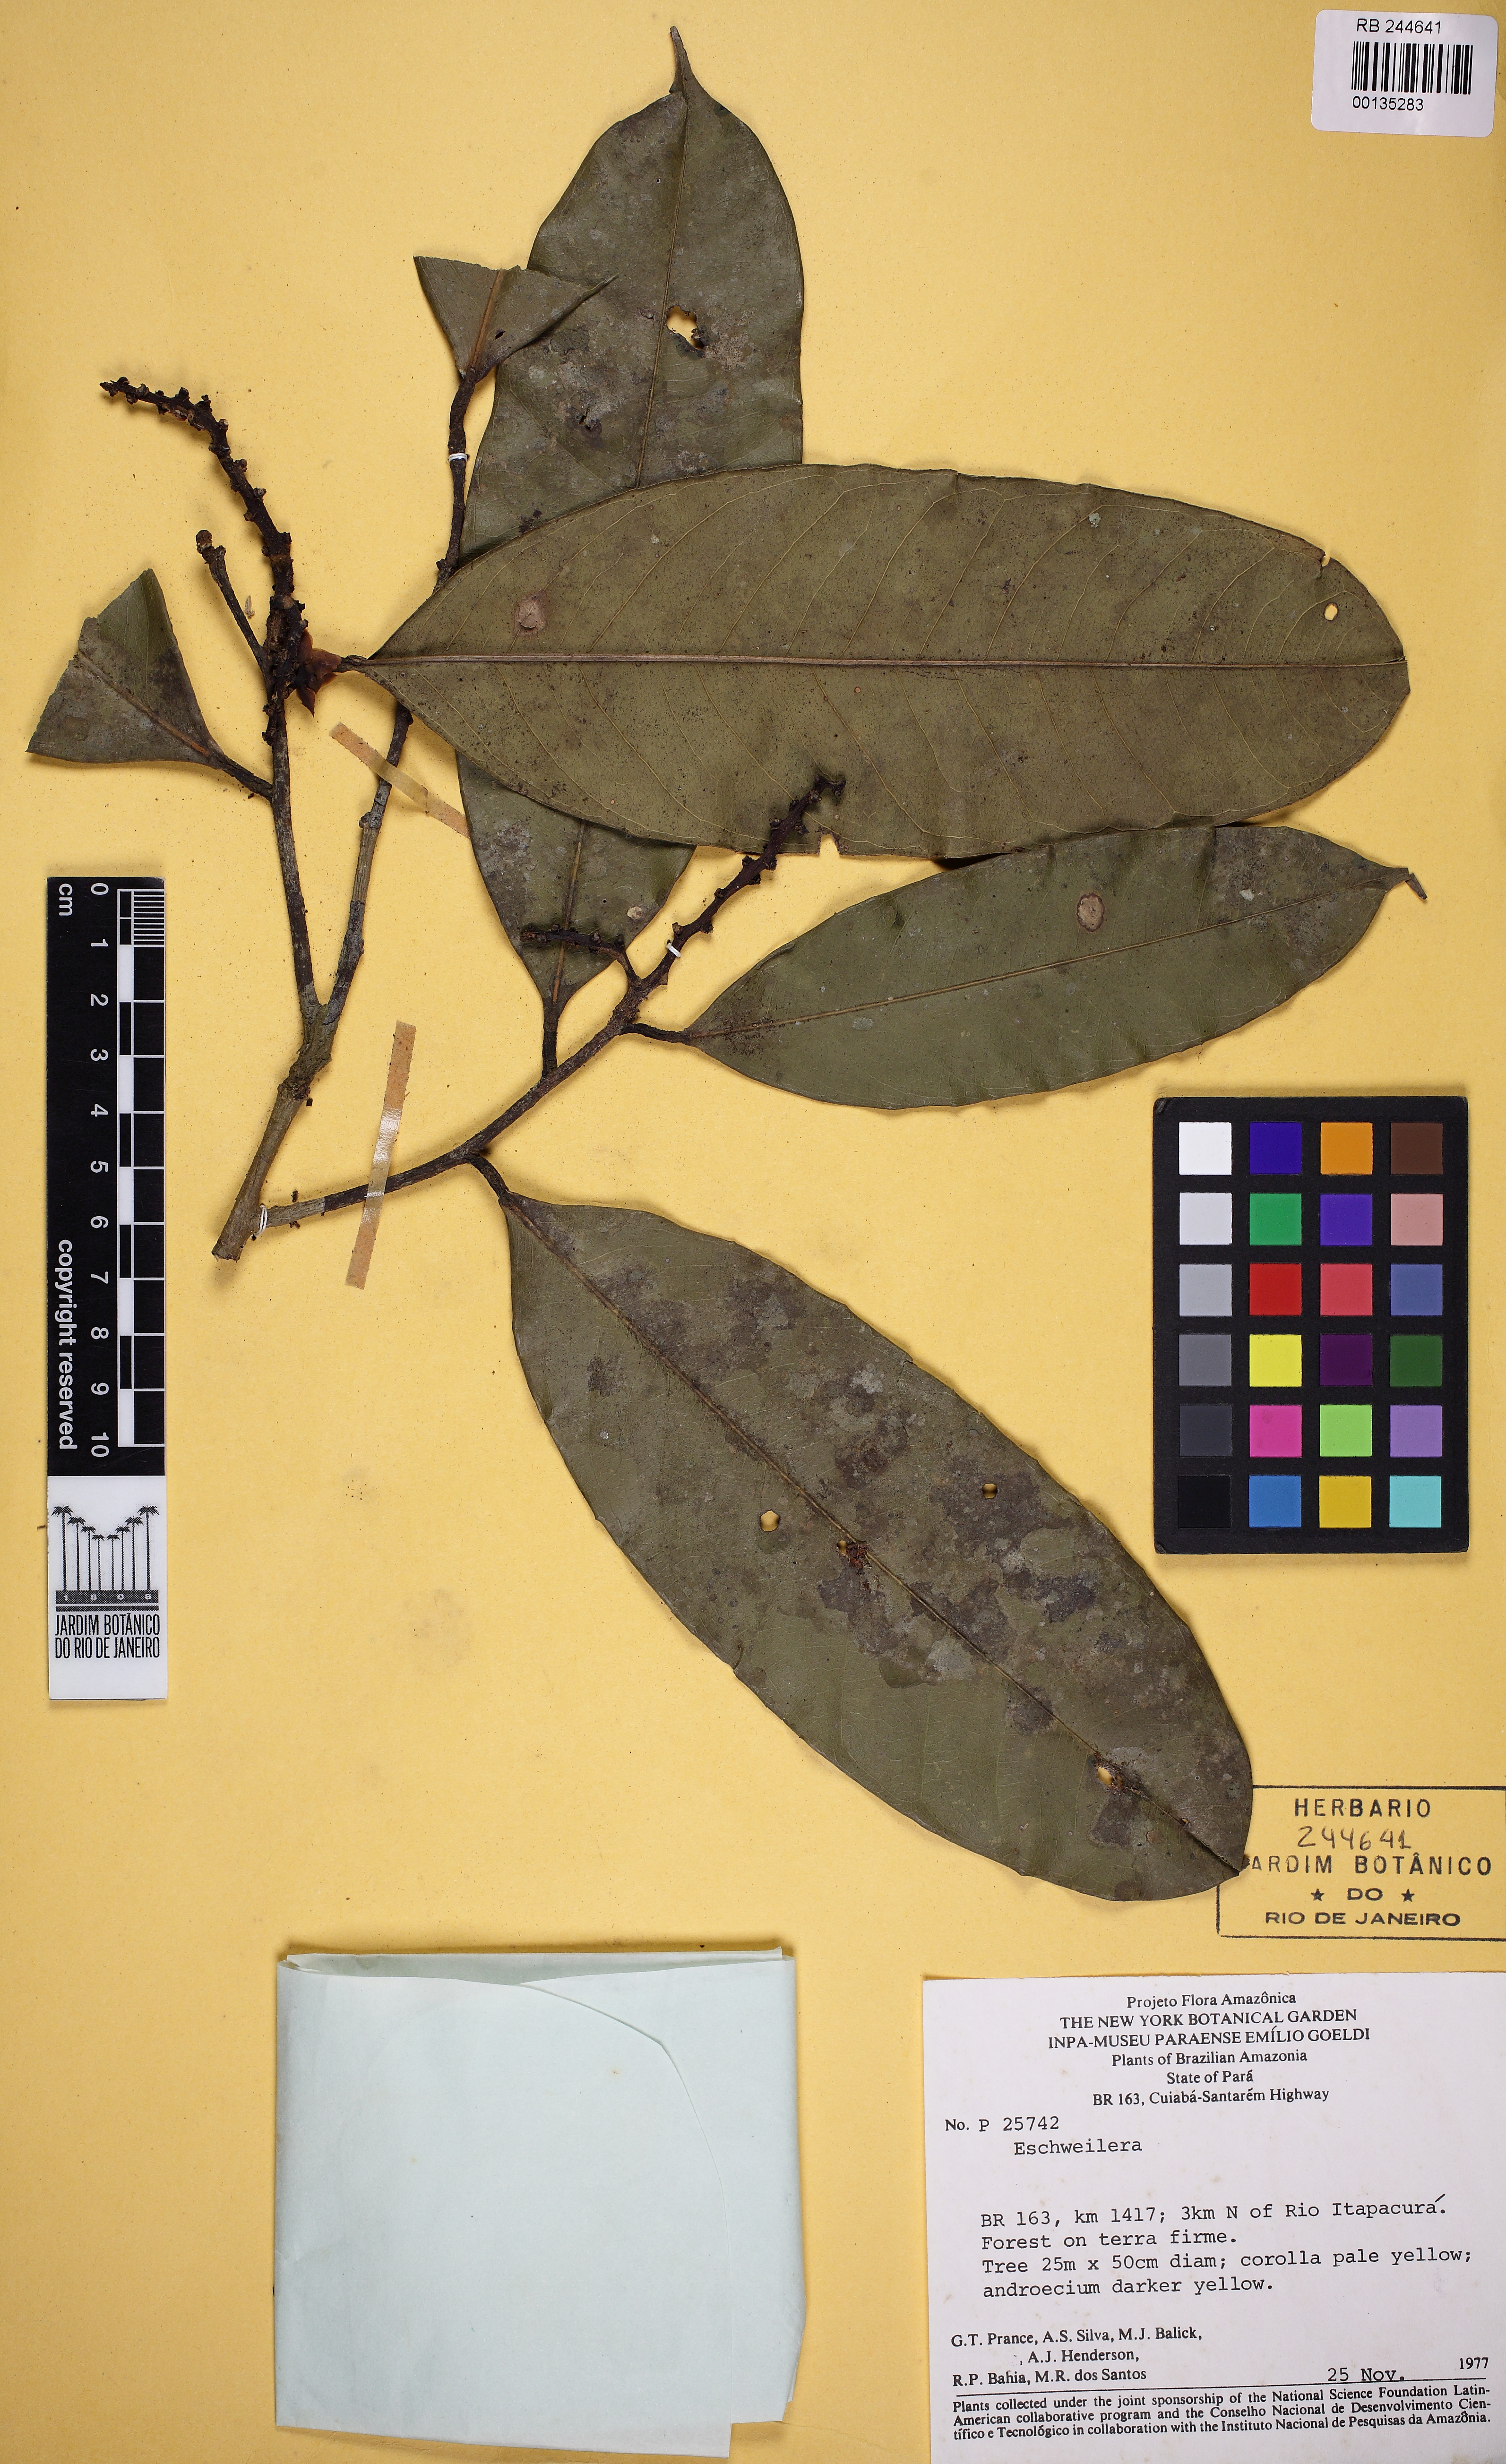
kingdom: Plantae
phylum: Tracheophyta
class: Magnoliopsida
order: Ericales
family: Lecythidaceae
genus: Eschweilera
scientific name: Eschweilera truncata
